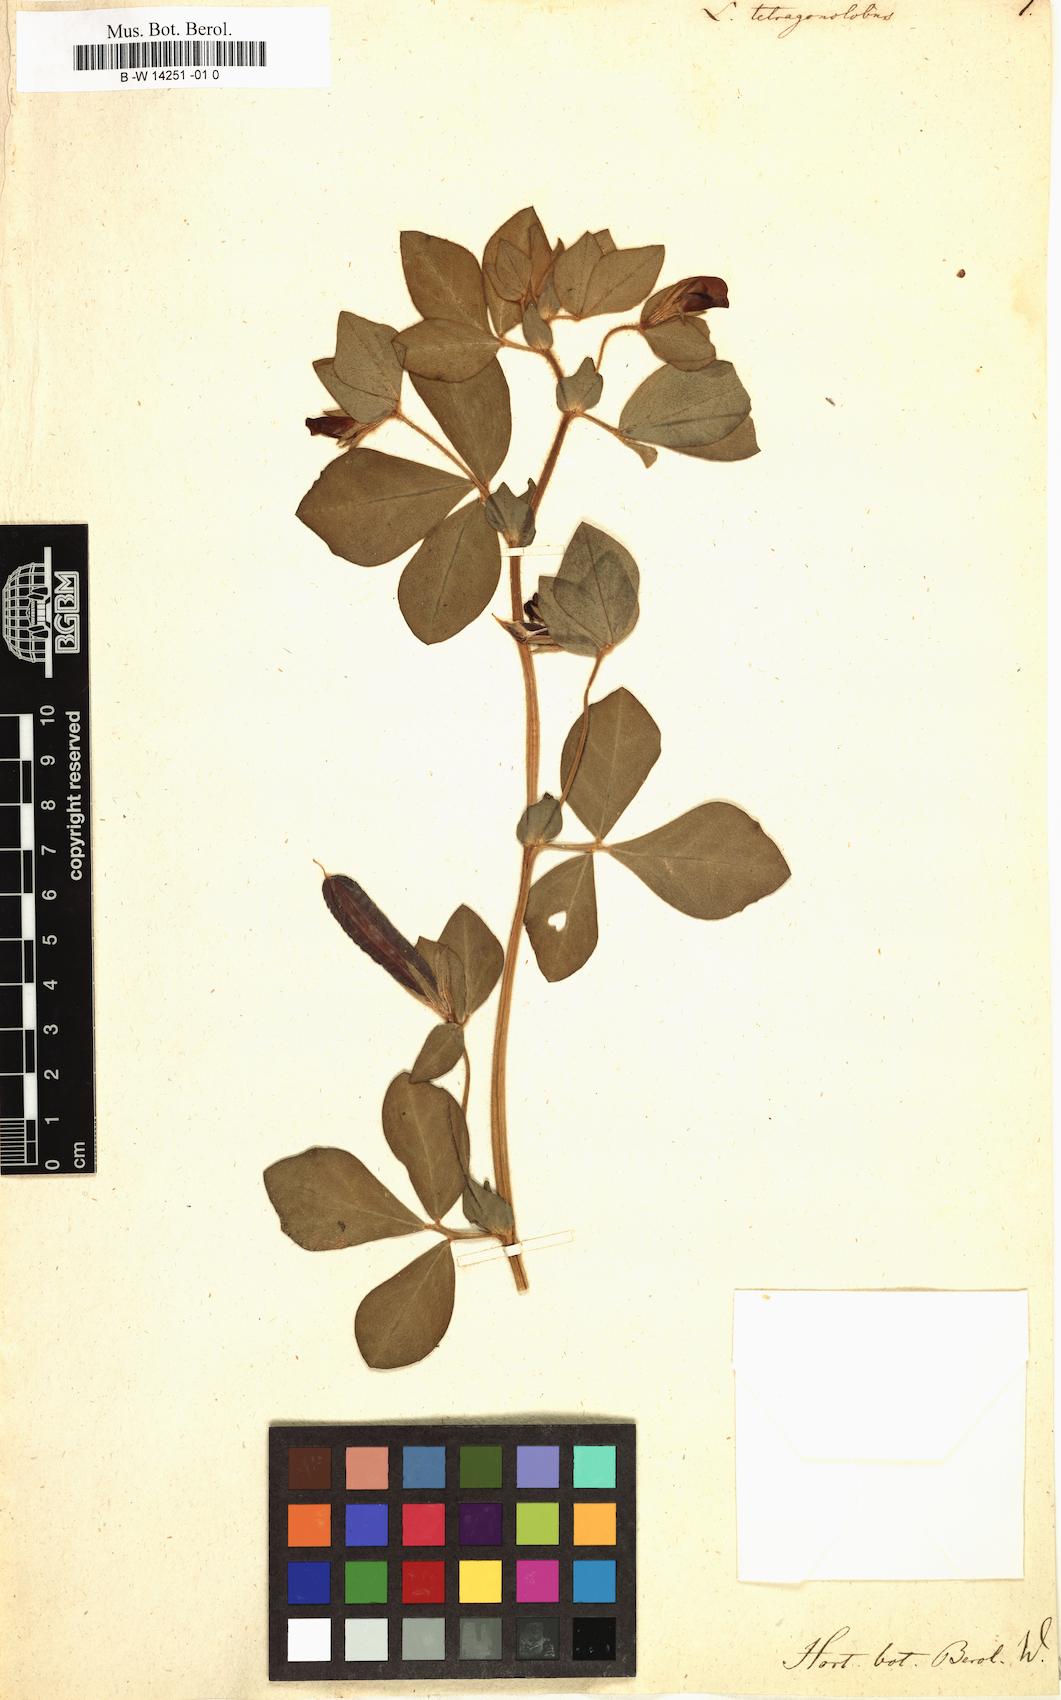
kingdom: Plantae
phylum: Tracheophyta
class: Magnoliopsida
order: Fabales
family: Fabaceae
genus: Lotus
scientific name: Lotus tetragonolobus
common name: Asparagus-pea
